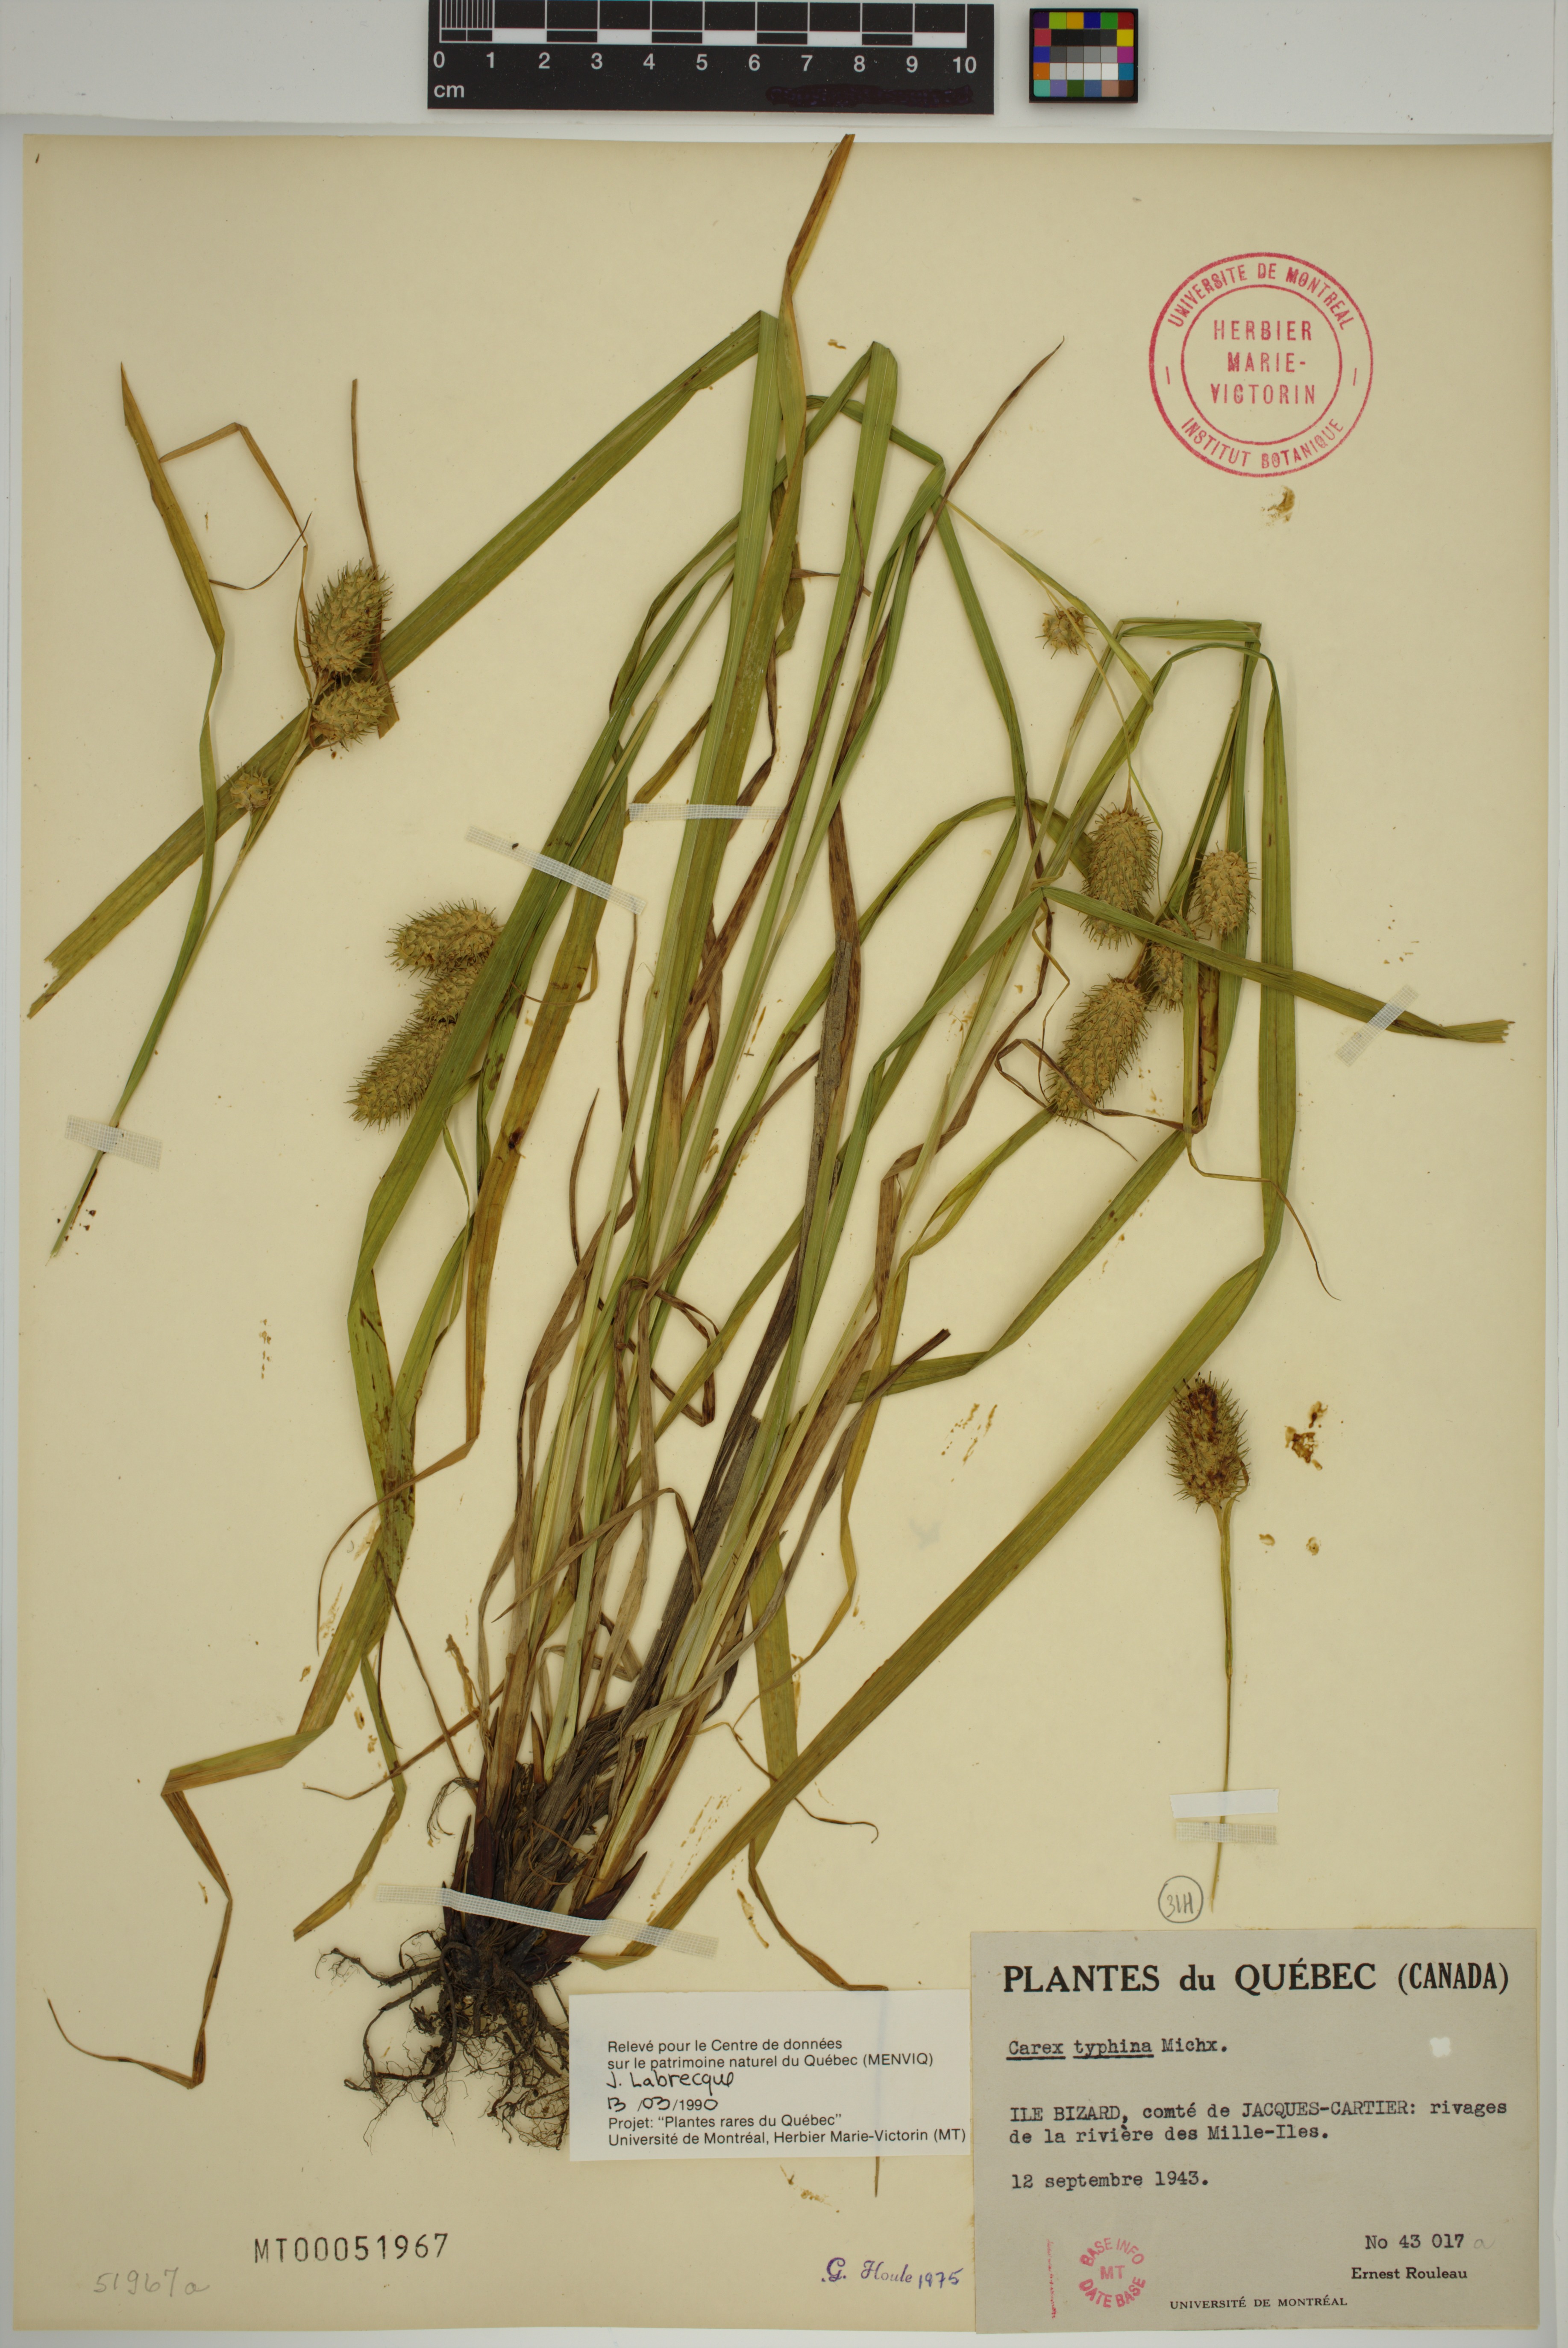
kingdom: Plantae
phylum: Tracheophyta
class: Liliopsida
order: Poales
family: Cyperaceae
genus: Carex
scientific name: Carex typhina
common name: Cattail sedge
